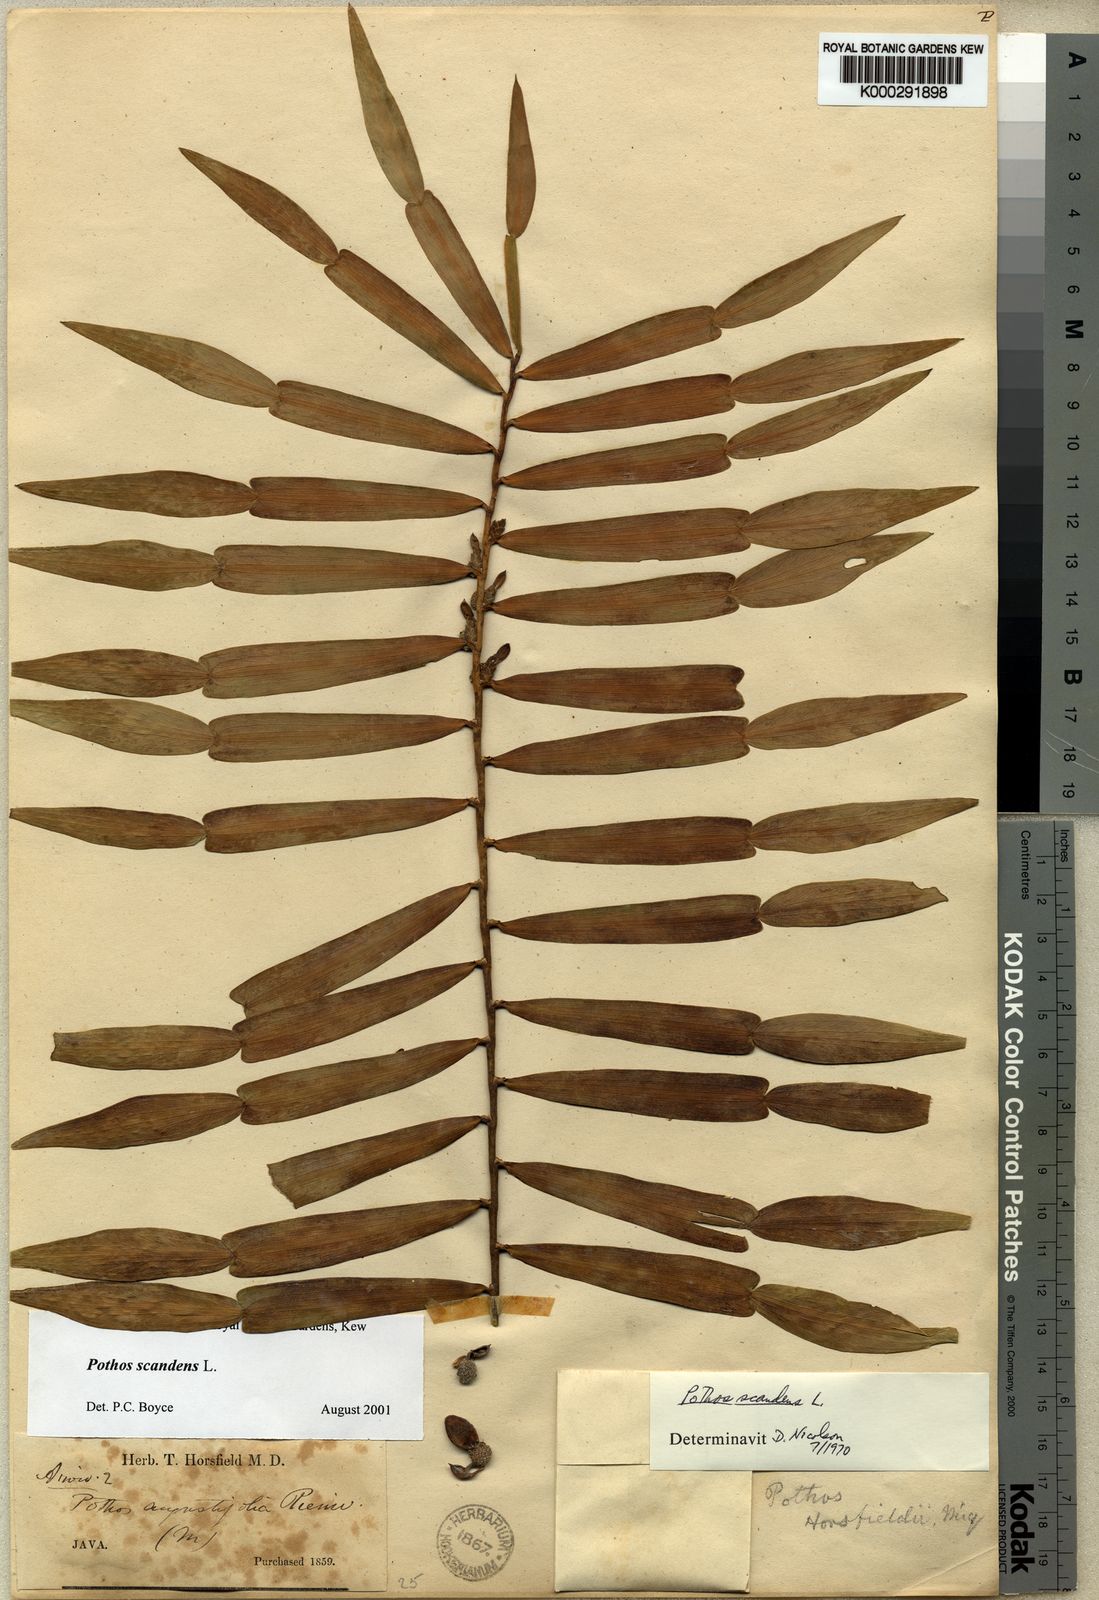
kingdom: Plantae
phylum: Tracheophyta
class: Liliopsida
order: Alismatales
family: Araceae
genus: Pothos
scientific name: Pothos scandens
